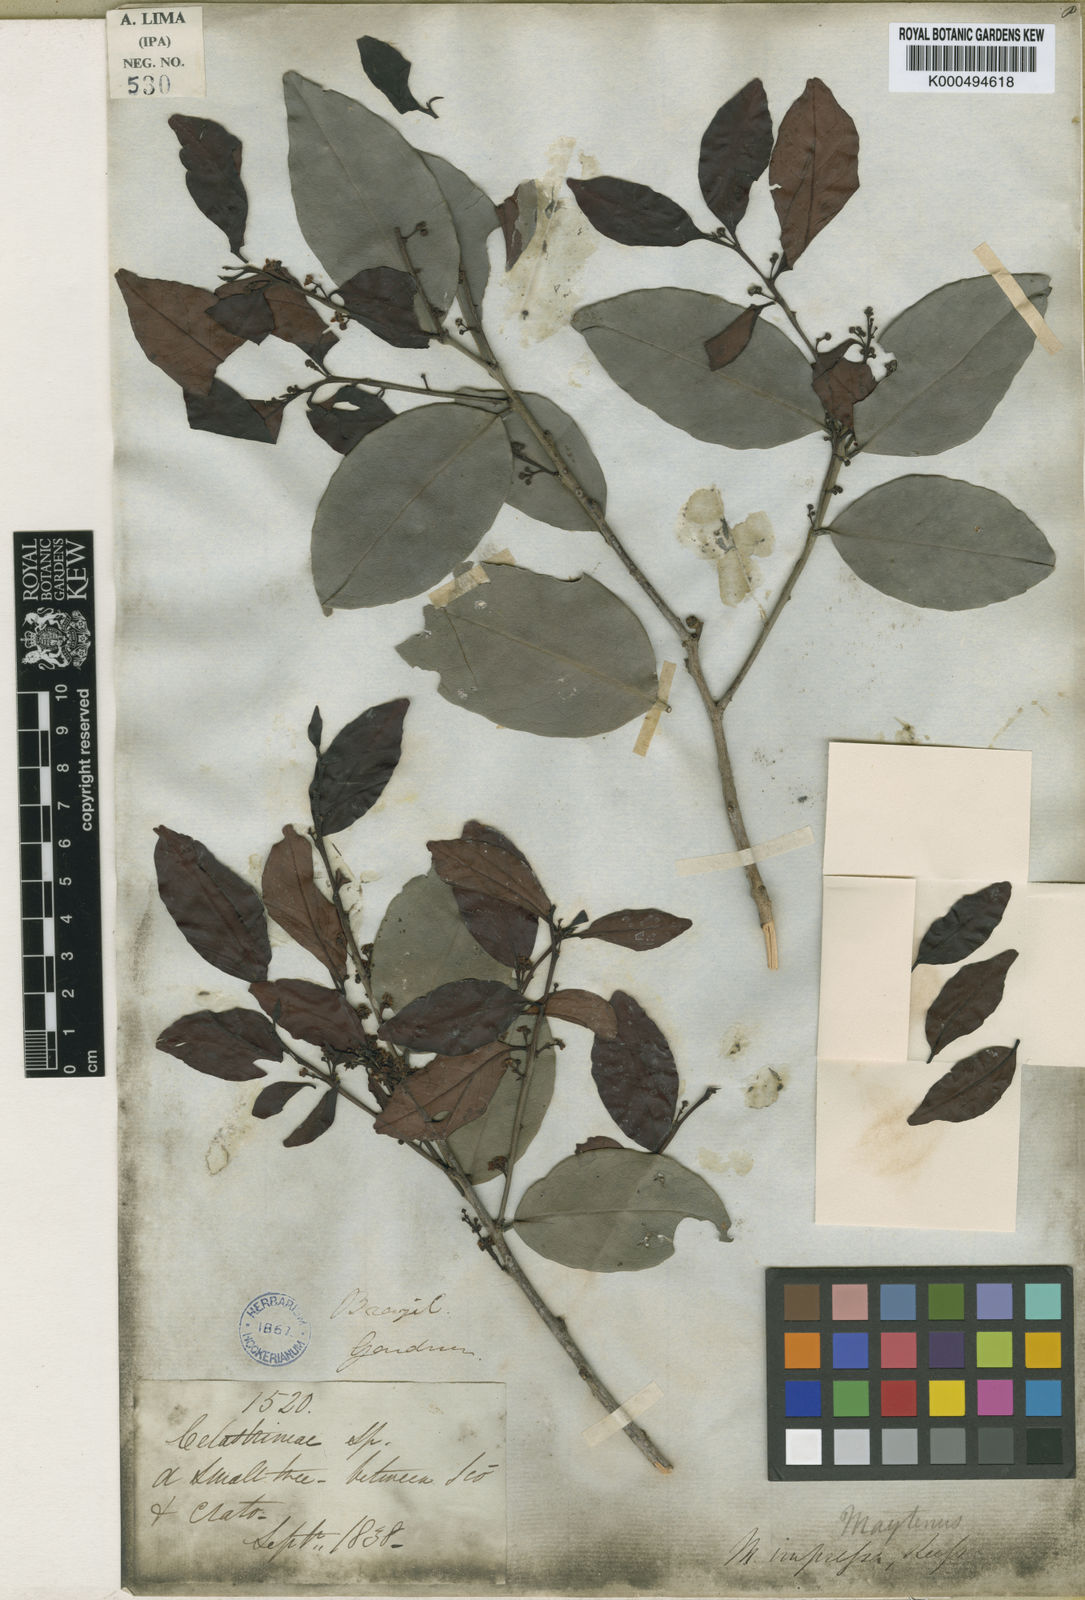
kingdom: Plantae
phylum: Tracheophyta
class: Magnoliopsida
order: Celastrales
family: Celastraceae
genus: Monteverdia
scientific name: Monteverdia obtusifolia
